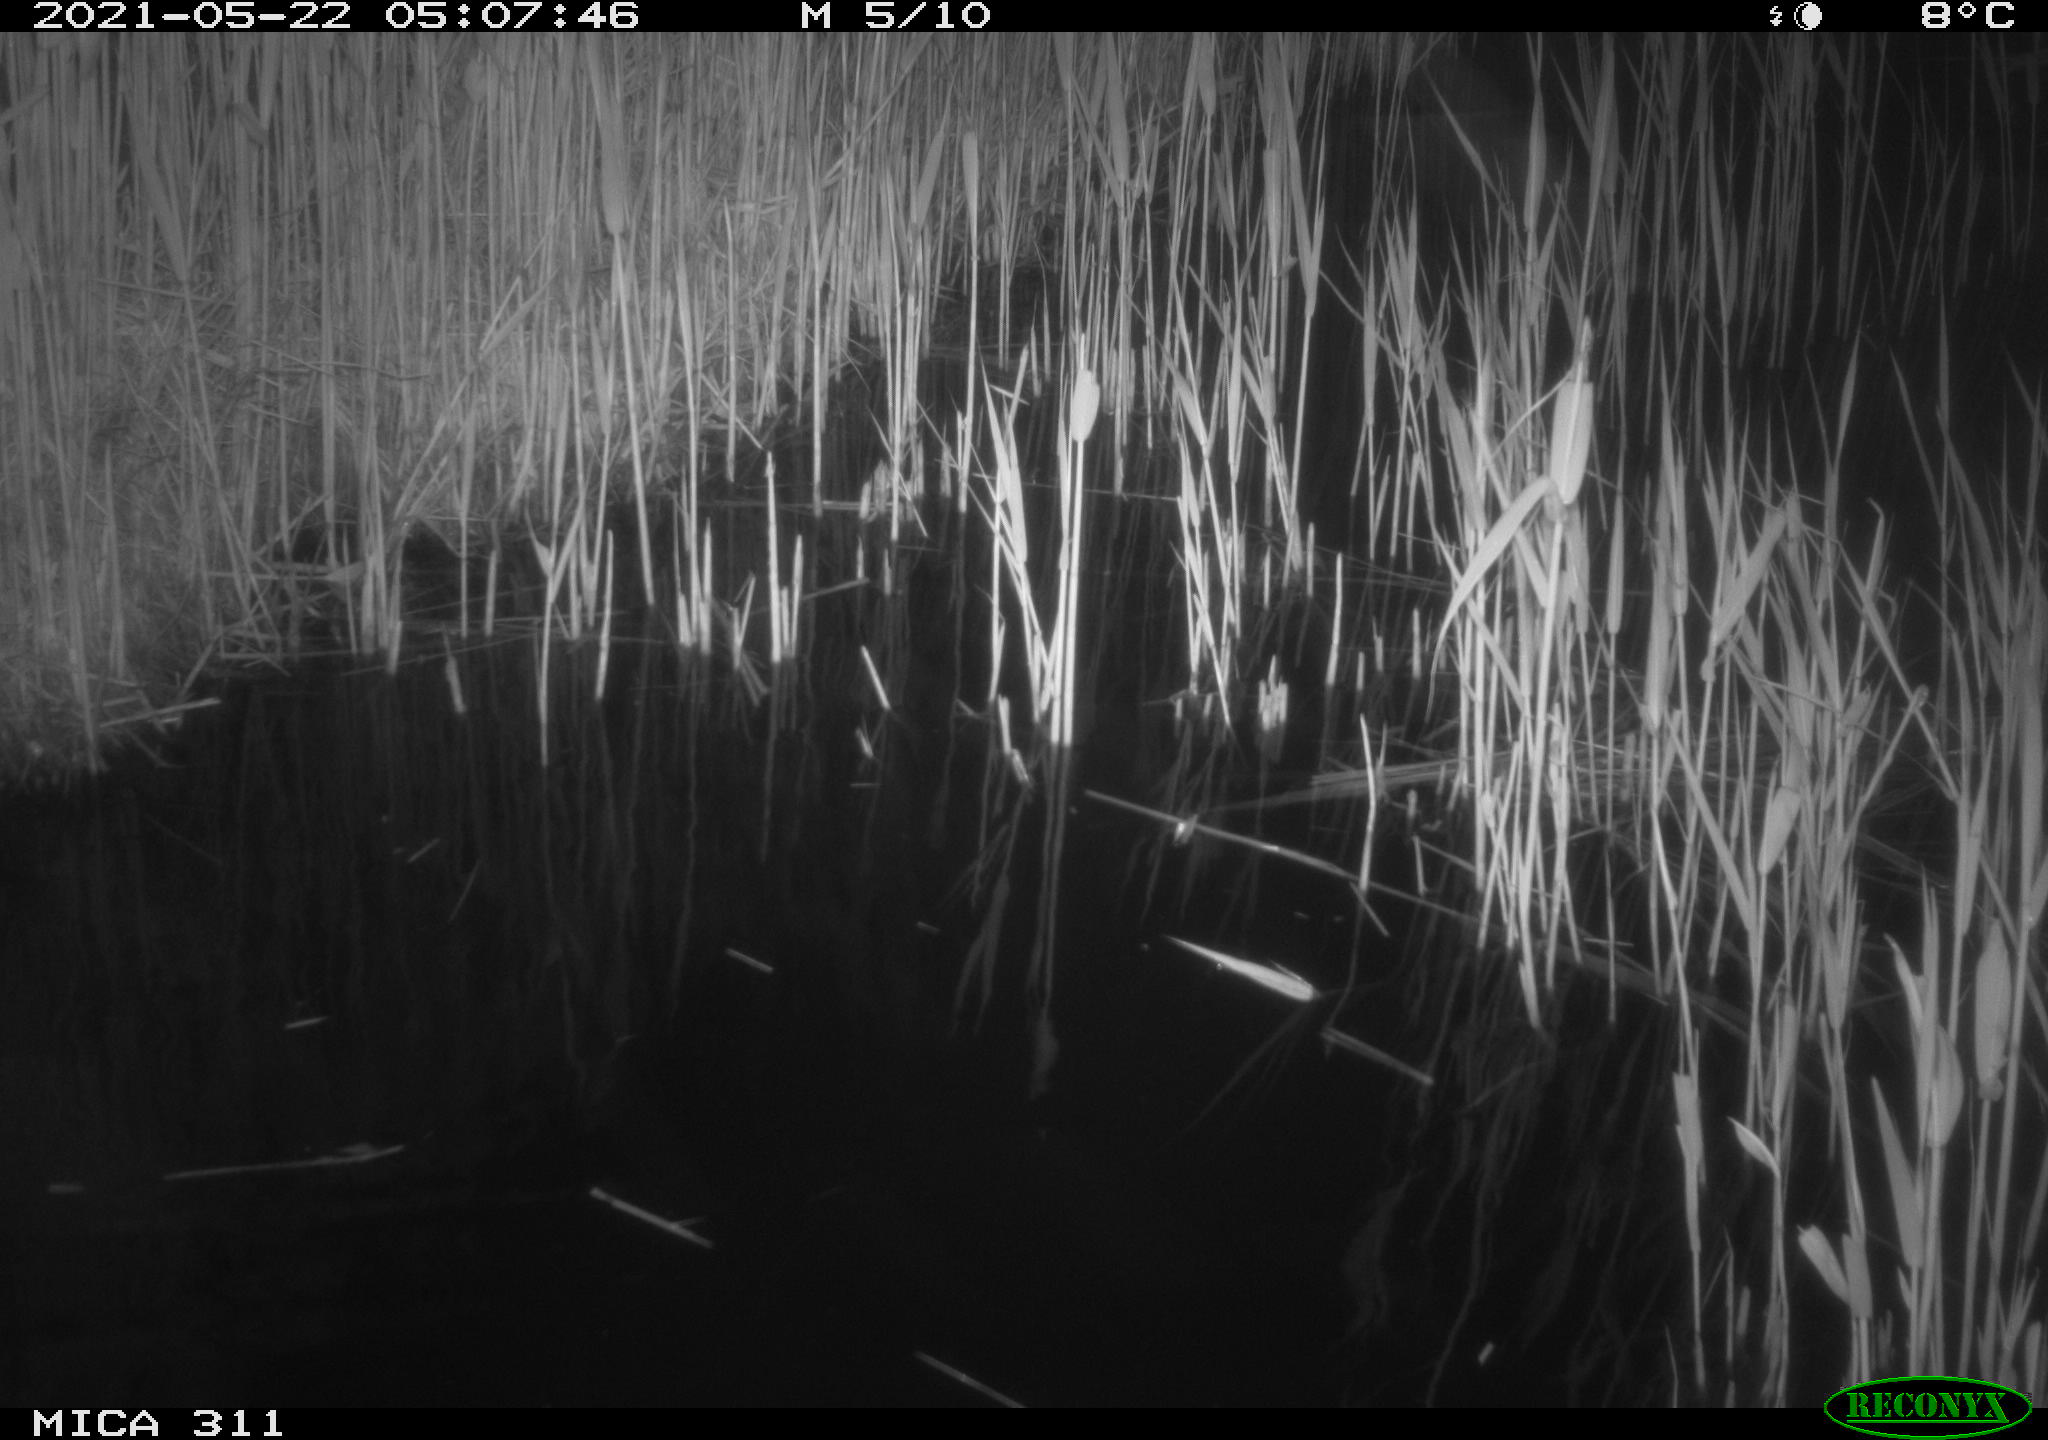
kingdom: Animalia
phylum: Chordata
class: Aves
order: Gruiformes
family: Rallidae
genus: Gallinula
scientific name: Gallinula chloropus
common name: Common moorhen
